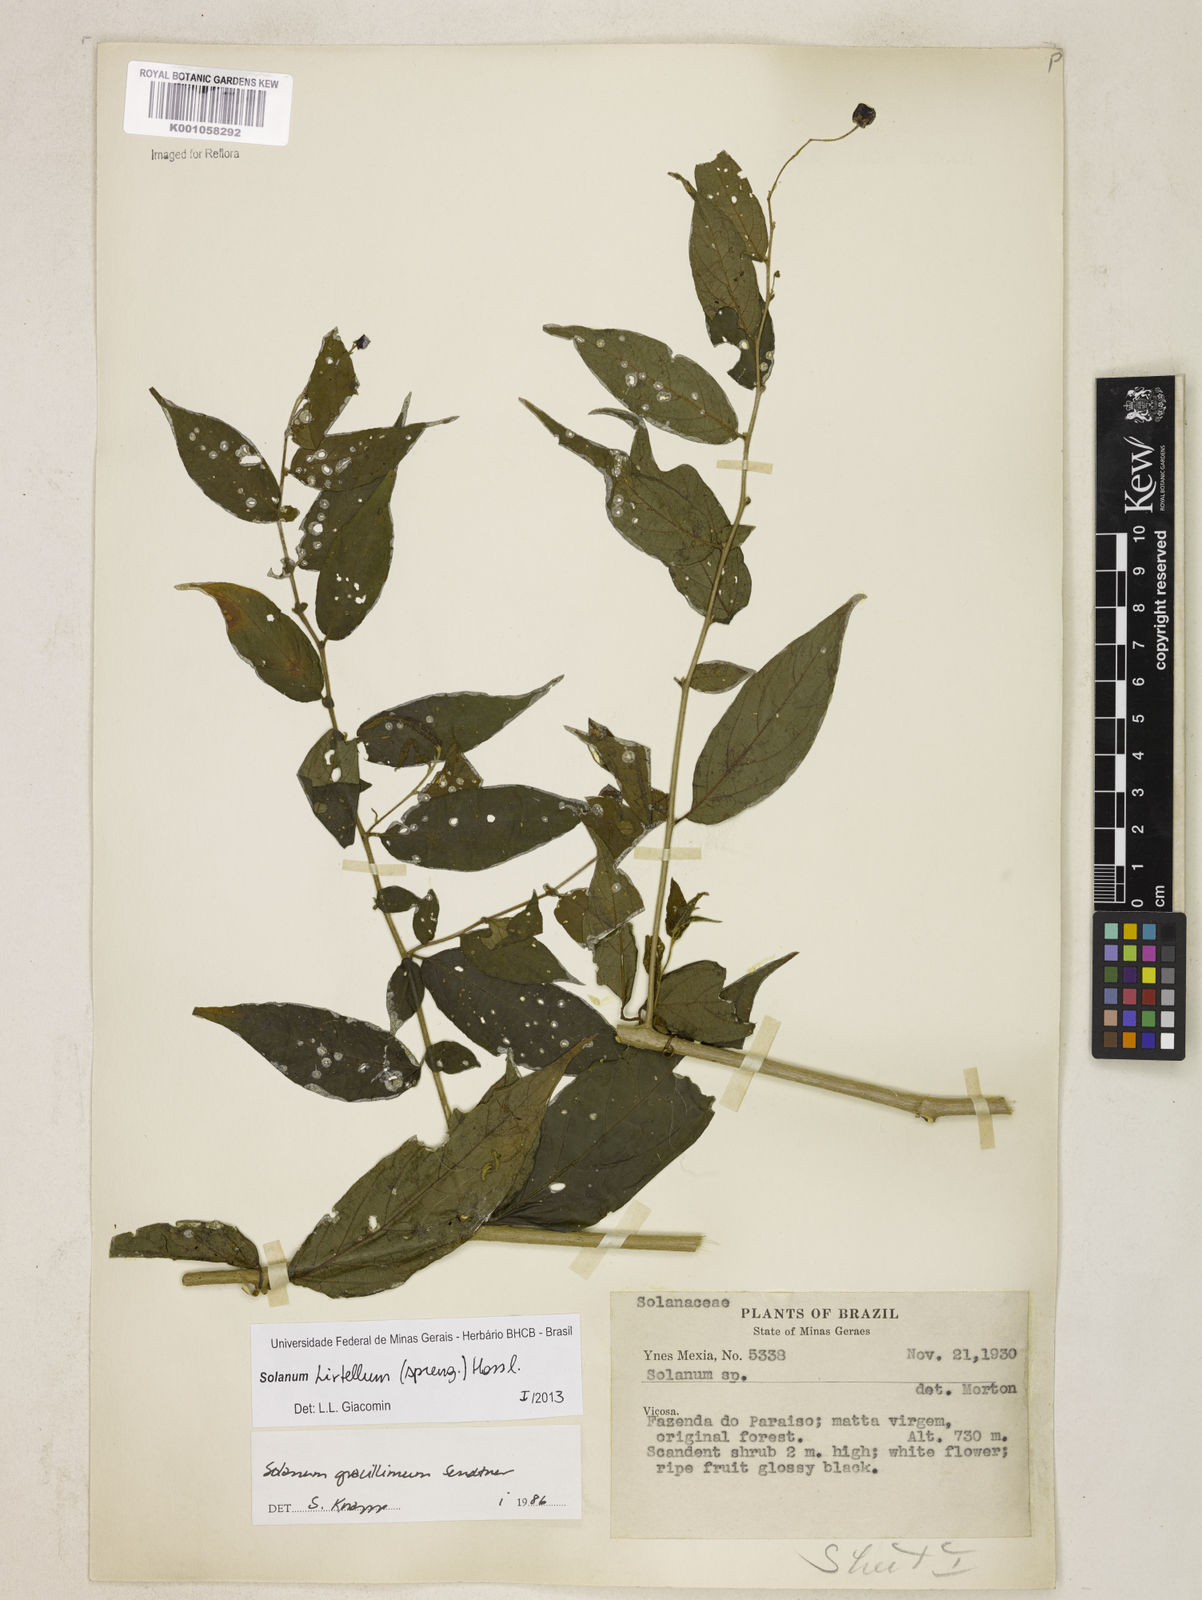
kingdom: Plantae
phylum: Tracheophyta
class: Magnoliopsida
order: Solanales
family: Solanaceae
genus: Solanum
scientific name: Solanum hirtellum
